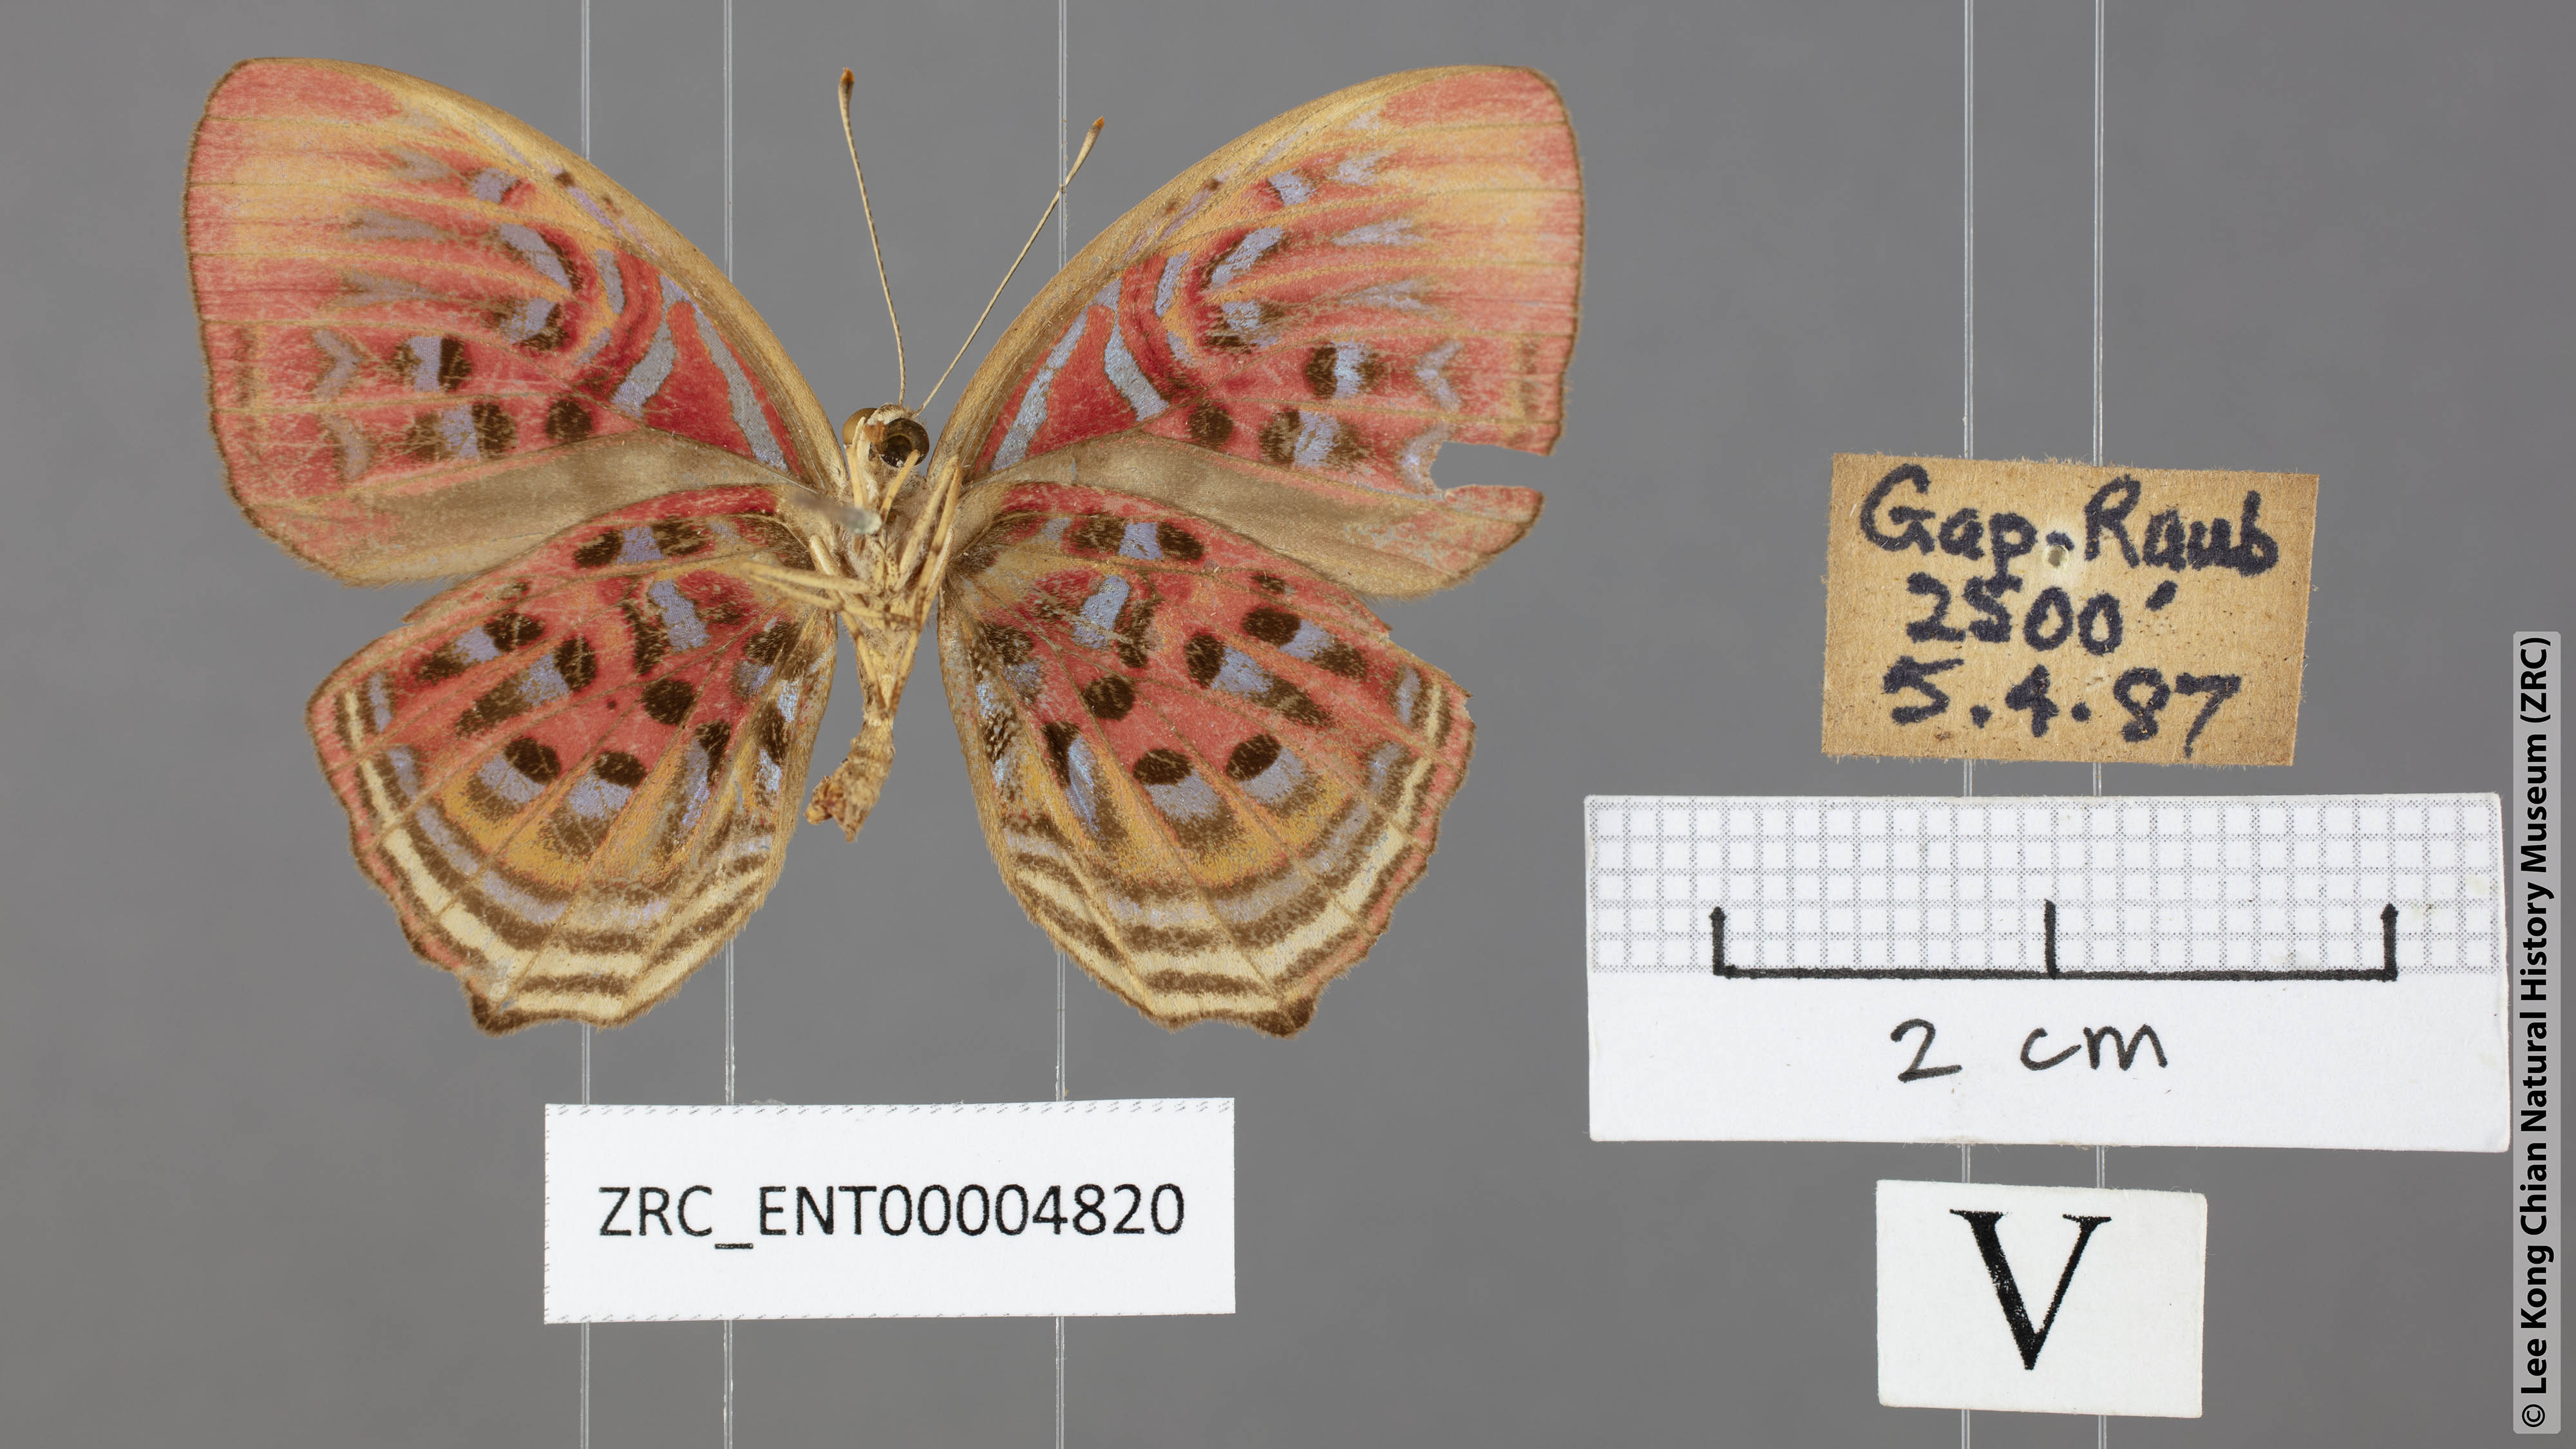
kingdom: Animalia
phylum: Arthropoda
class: Insecta
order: Lepidoptera
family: Lycaenidae
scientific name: Lycaenidae
